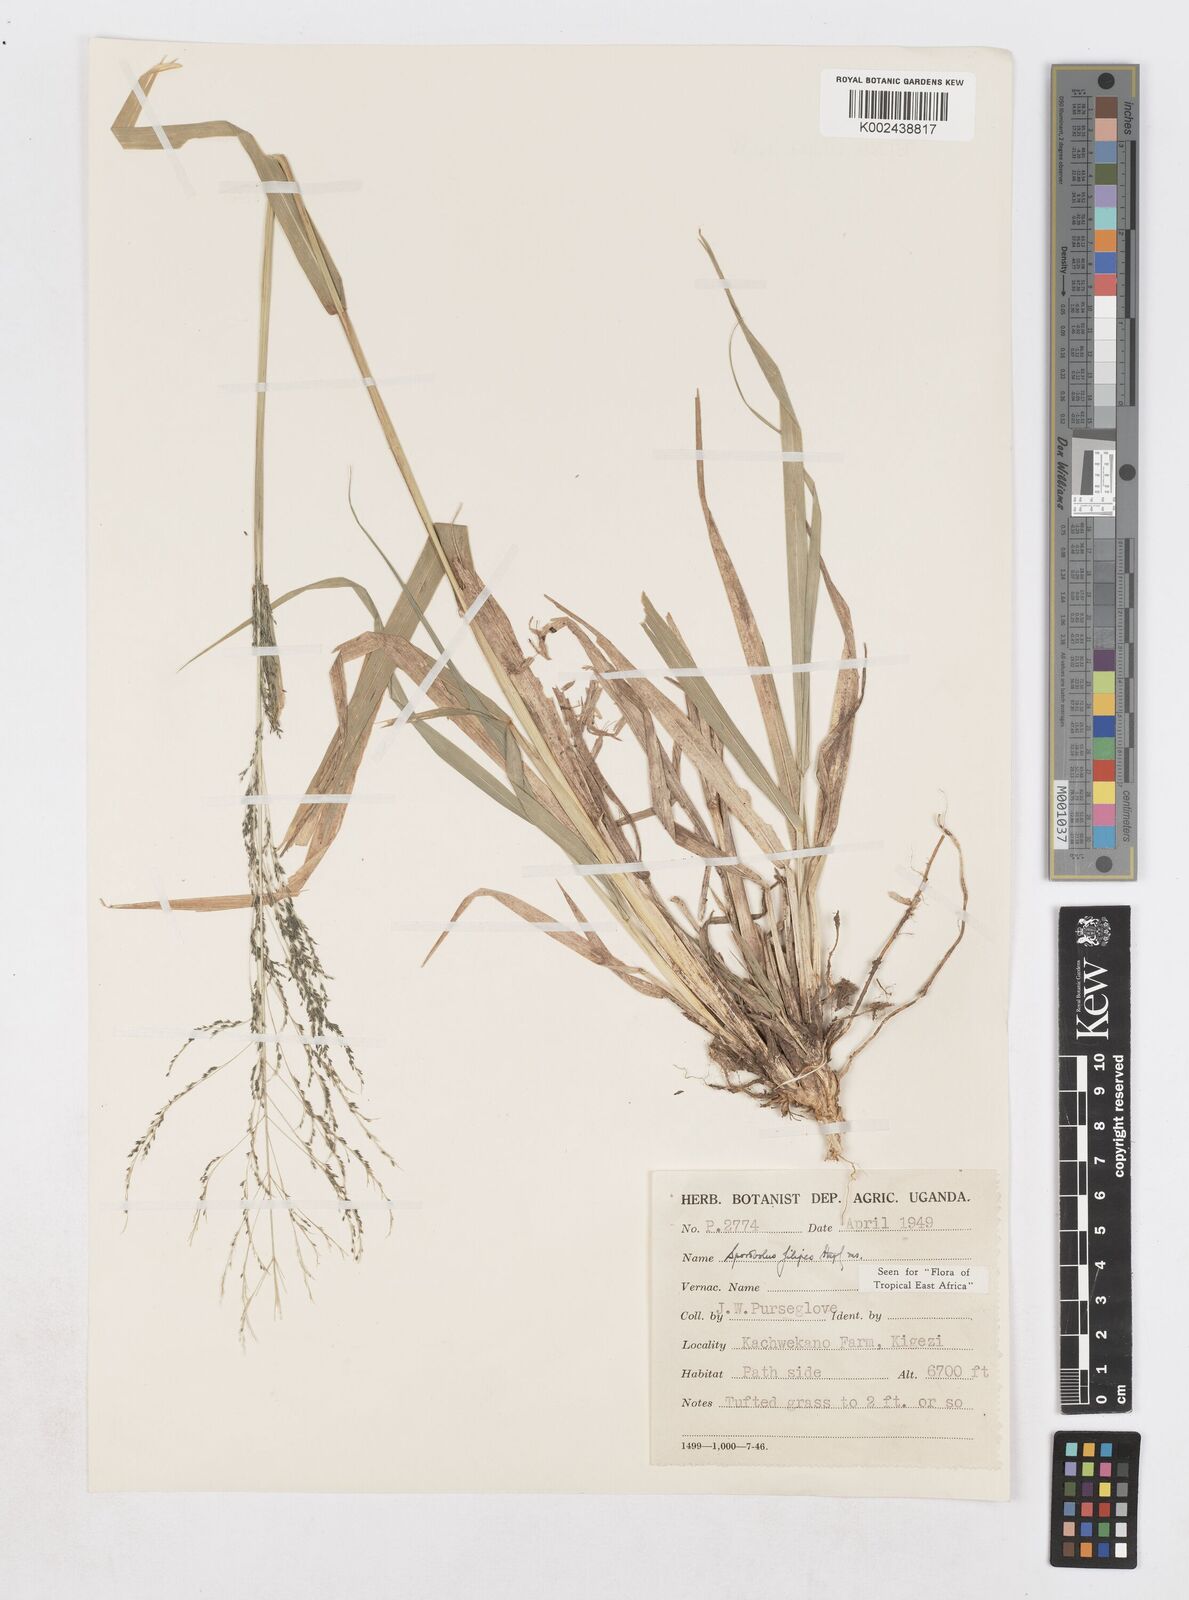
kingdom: Plantae
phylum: Tracheophyta
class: Liliopsida
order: Poales
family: Poaceae
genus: Sporobolus
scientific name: Sporobolus agrostoides
